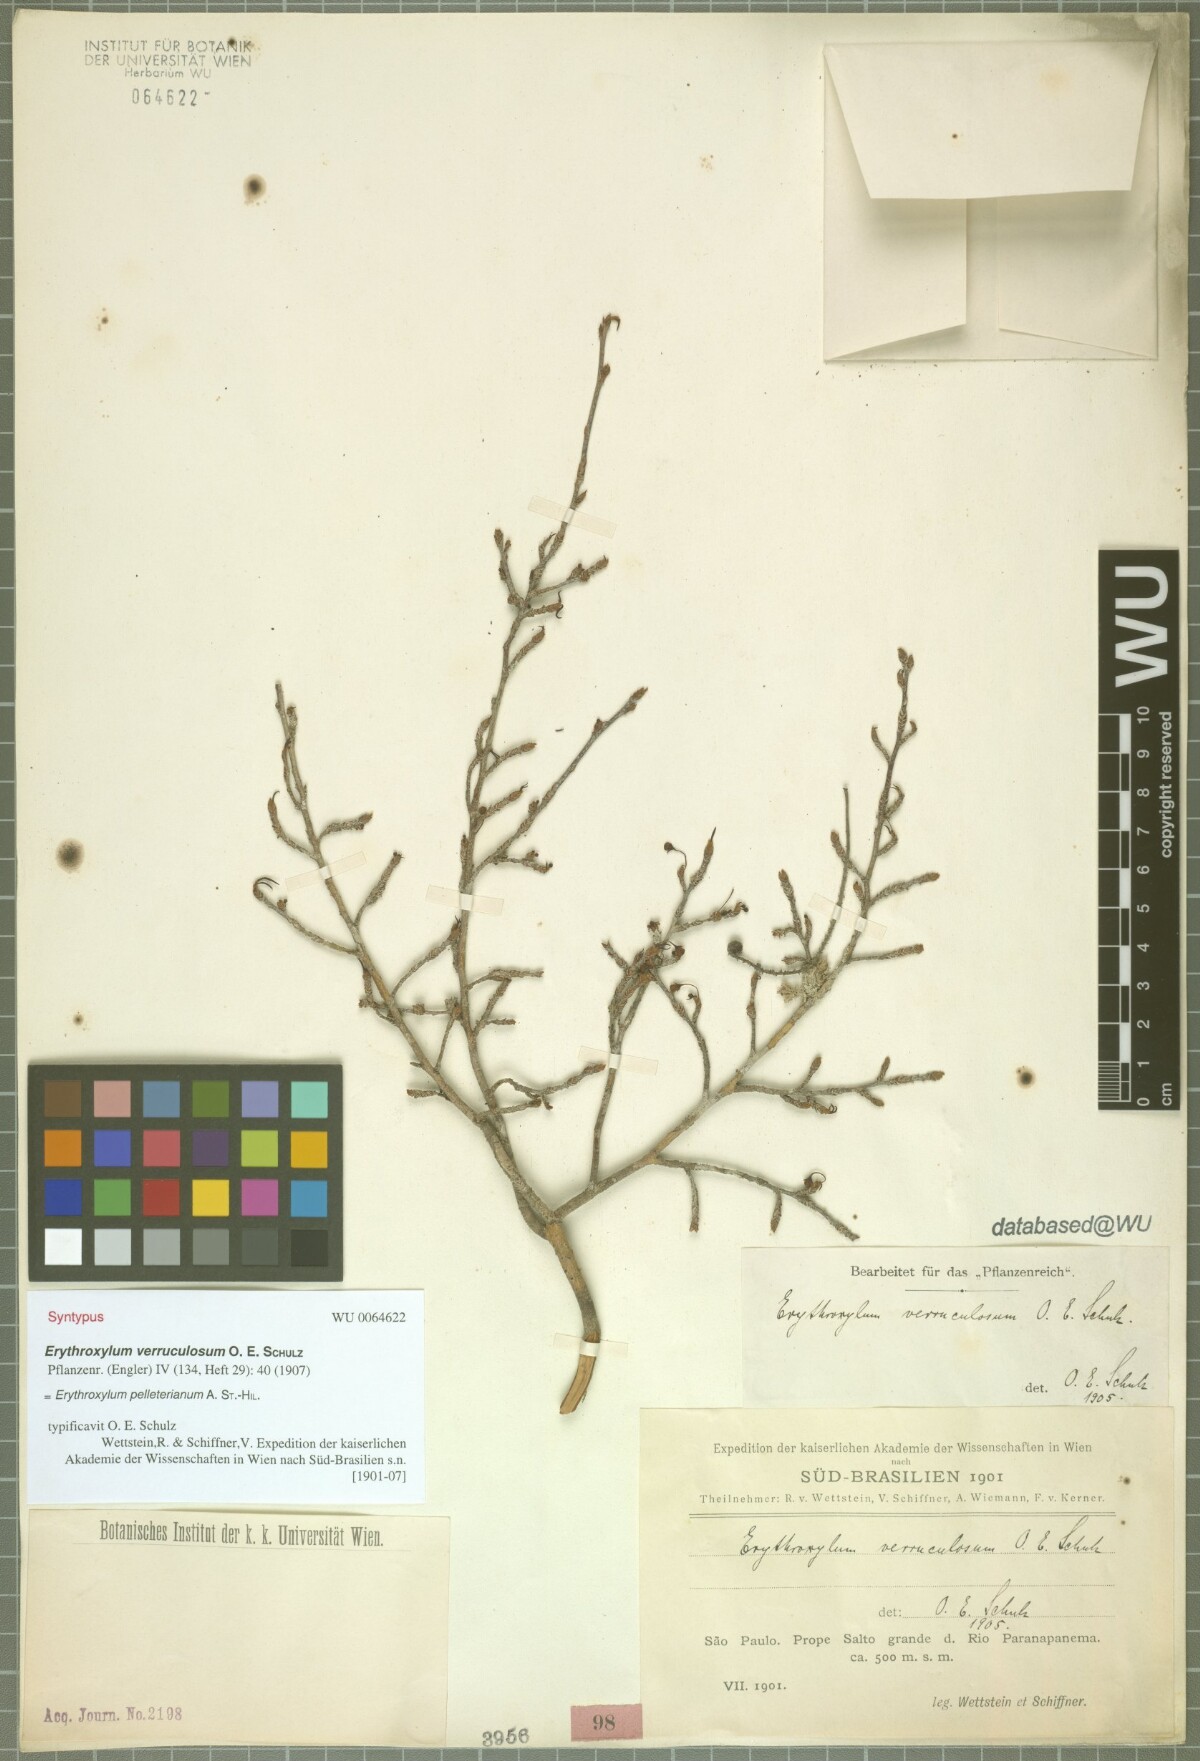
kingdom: Plantae
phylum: Tracheophyta
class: Magnoliopsida
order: Malpighiales
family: Erythroxylaceae
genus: Erythroxylum
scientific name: Erythroxylum pelleterianum
